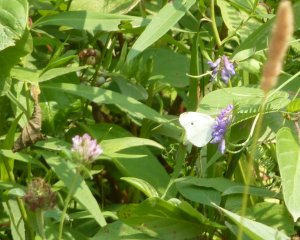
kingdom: Animalia
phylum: Arthropoda
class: Insecta
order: Lepidoptera
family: Pieridae
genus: Pieris
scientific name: Pieris rapae
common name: Cabbage White
